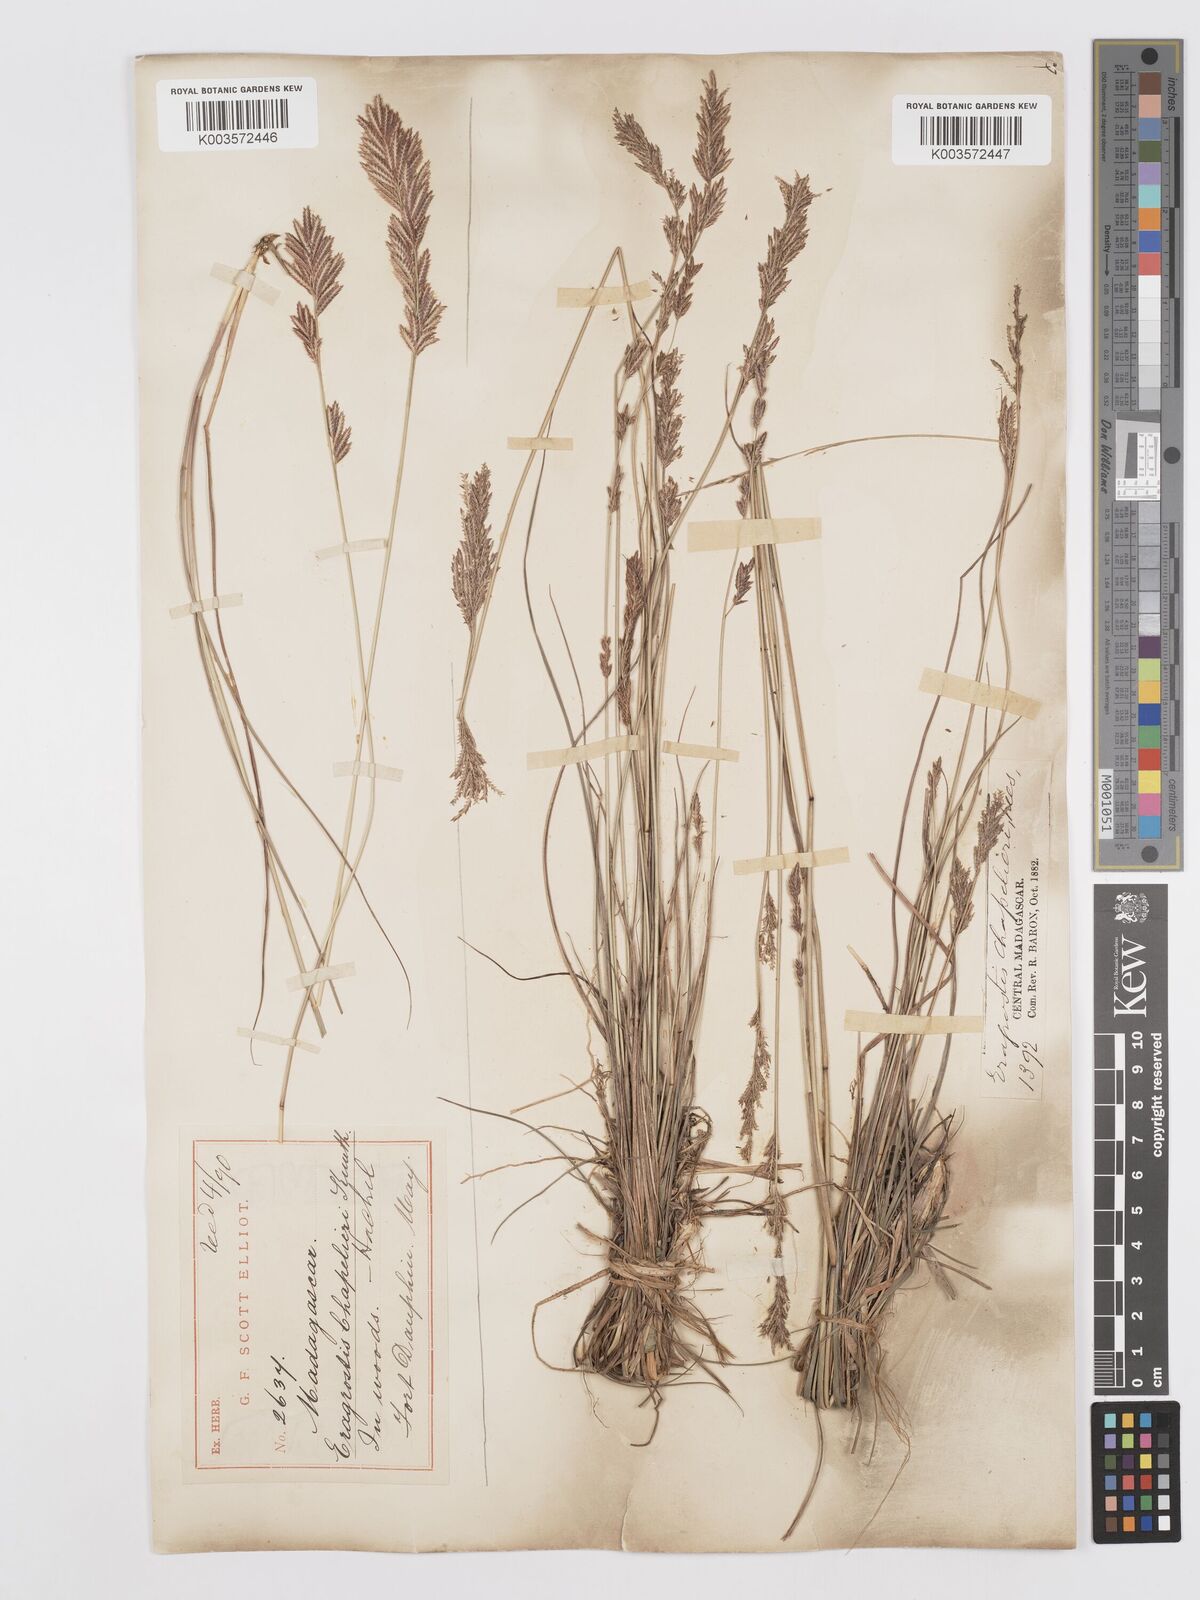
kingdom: Plantae
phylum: Tracheophyta
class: Liliopsida
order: Poales
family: Poaceae
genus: Eragrostis
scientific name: Eragrostis chapelieri
